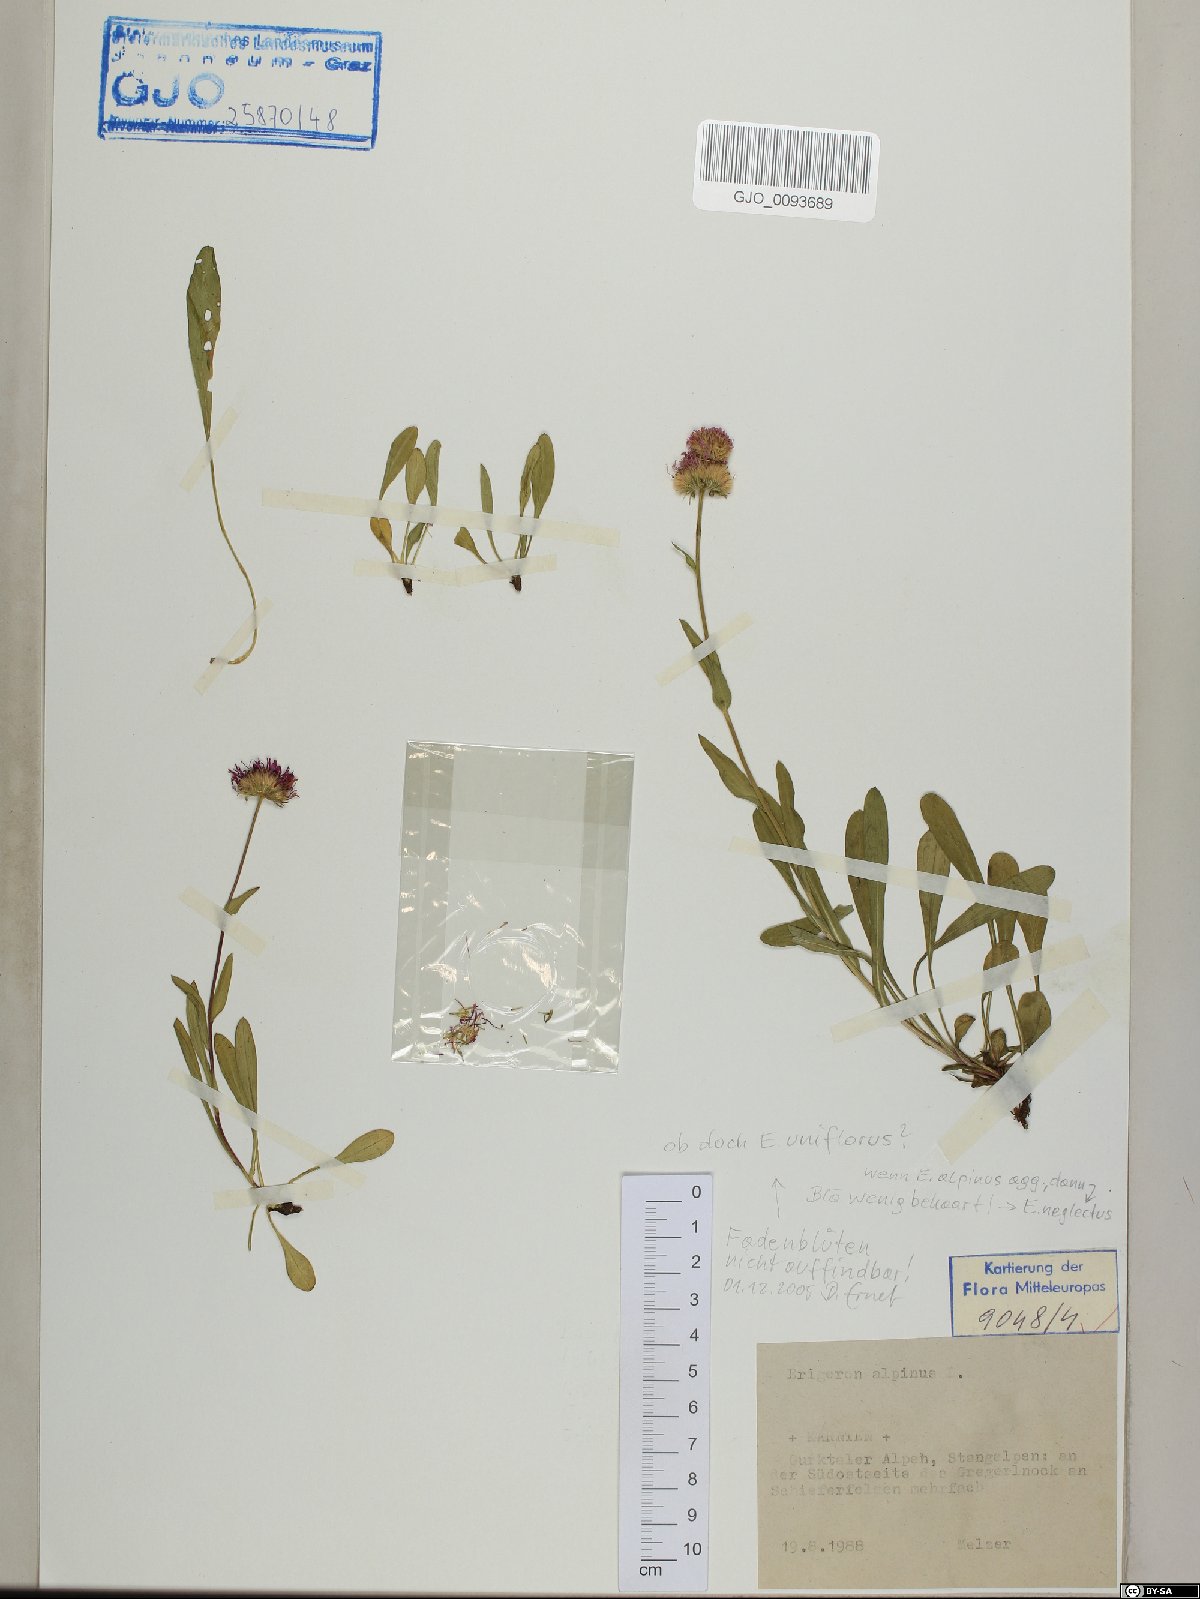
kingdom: Plantae
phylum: Tracheophyta
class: Magnoliopsida
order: Asterales
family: Asteraceae
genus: Erigeron
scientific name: Erigeron alpinus
